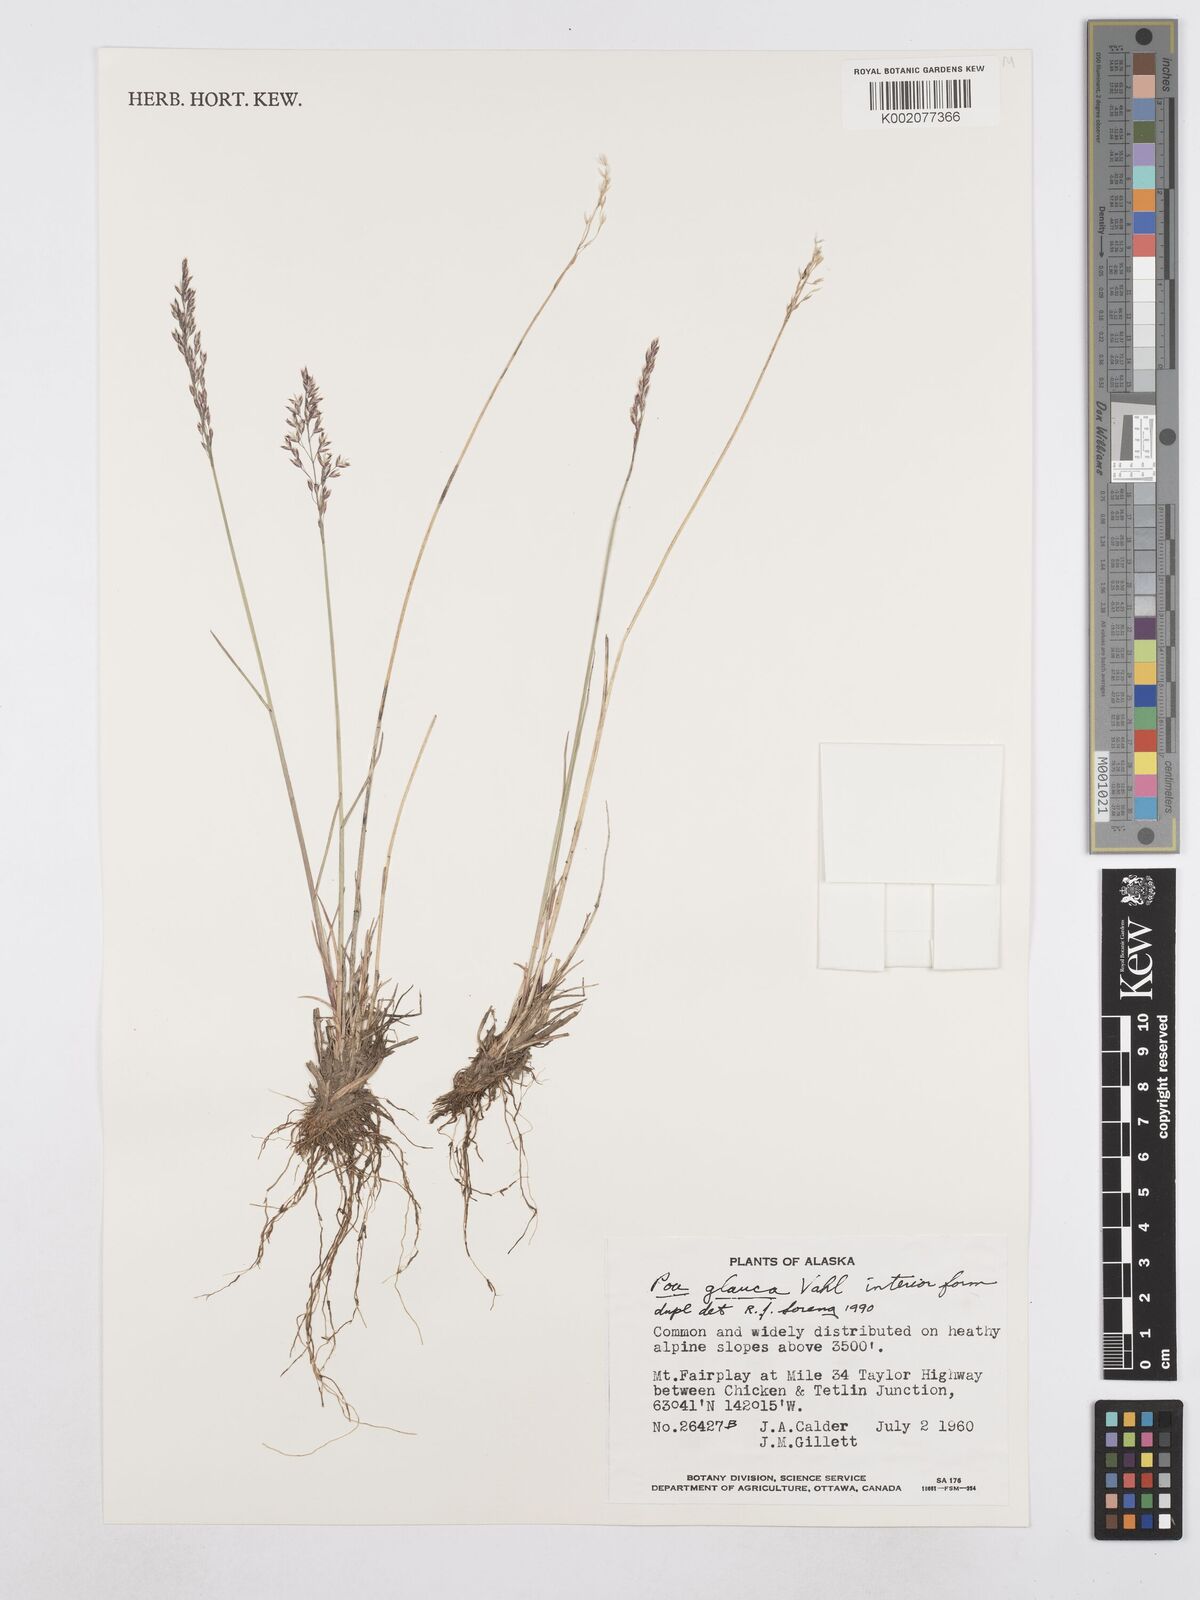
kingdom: Plantae
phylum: Tracheophyta
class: Liliopsida
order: Poales
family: Poaceae
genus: Poa
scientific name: Poa glauca
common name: Glaucous bluegrass
